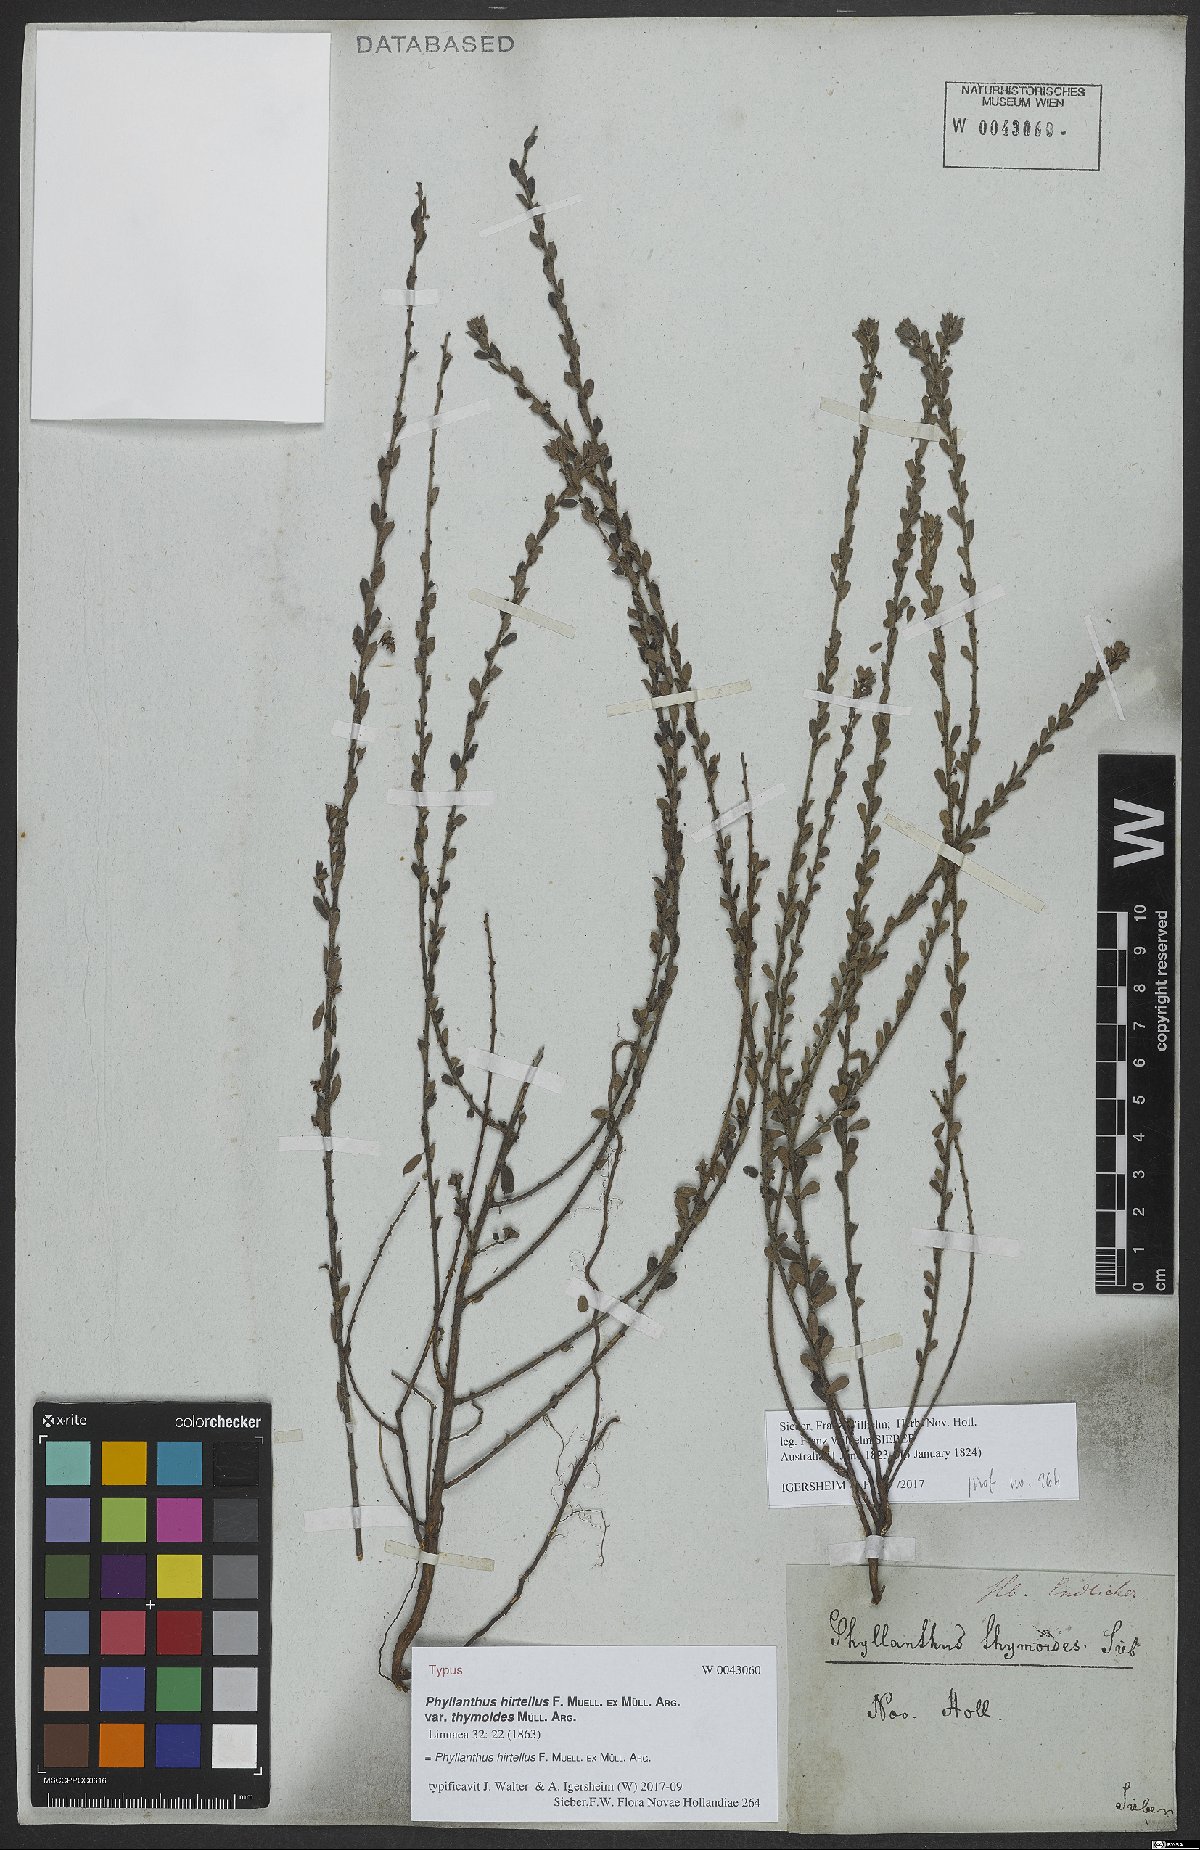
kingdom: Plantae
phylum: Tracheophyta
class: Magnoliopsida
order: Malpighiales
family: Phyllanthaceae
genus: Phyllanthus
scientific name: Phyllanthus hirtellus
